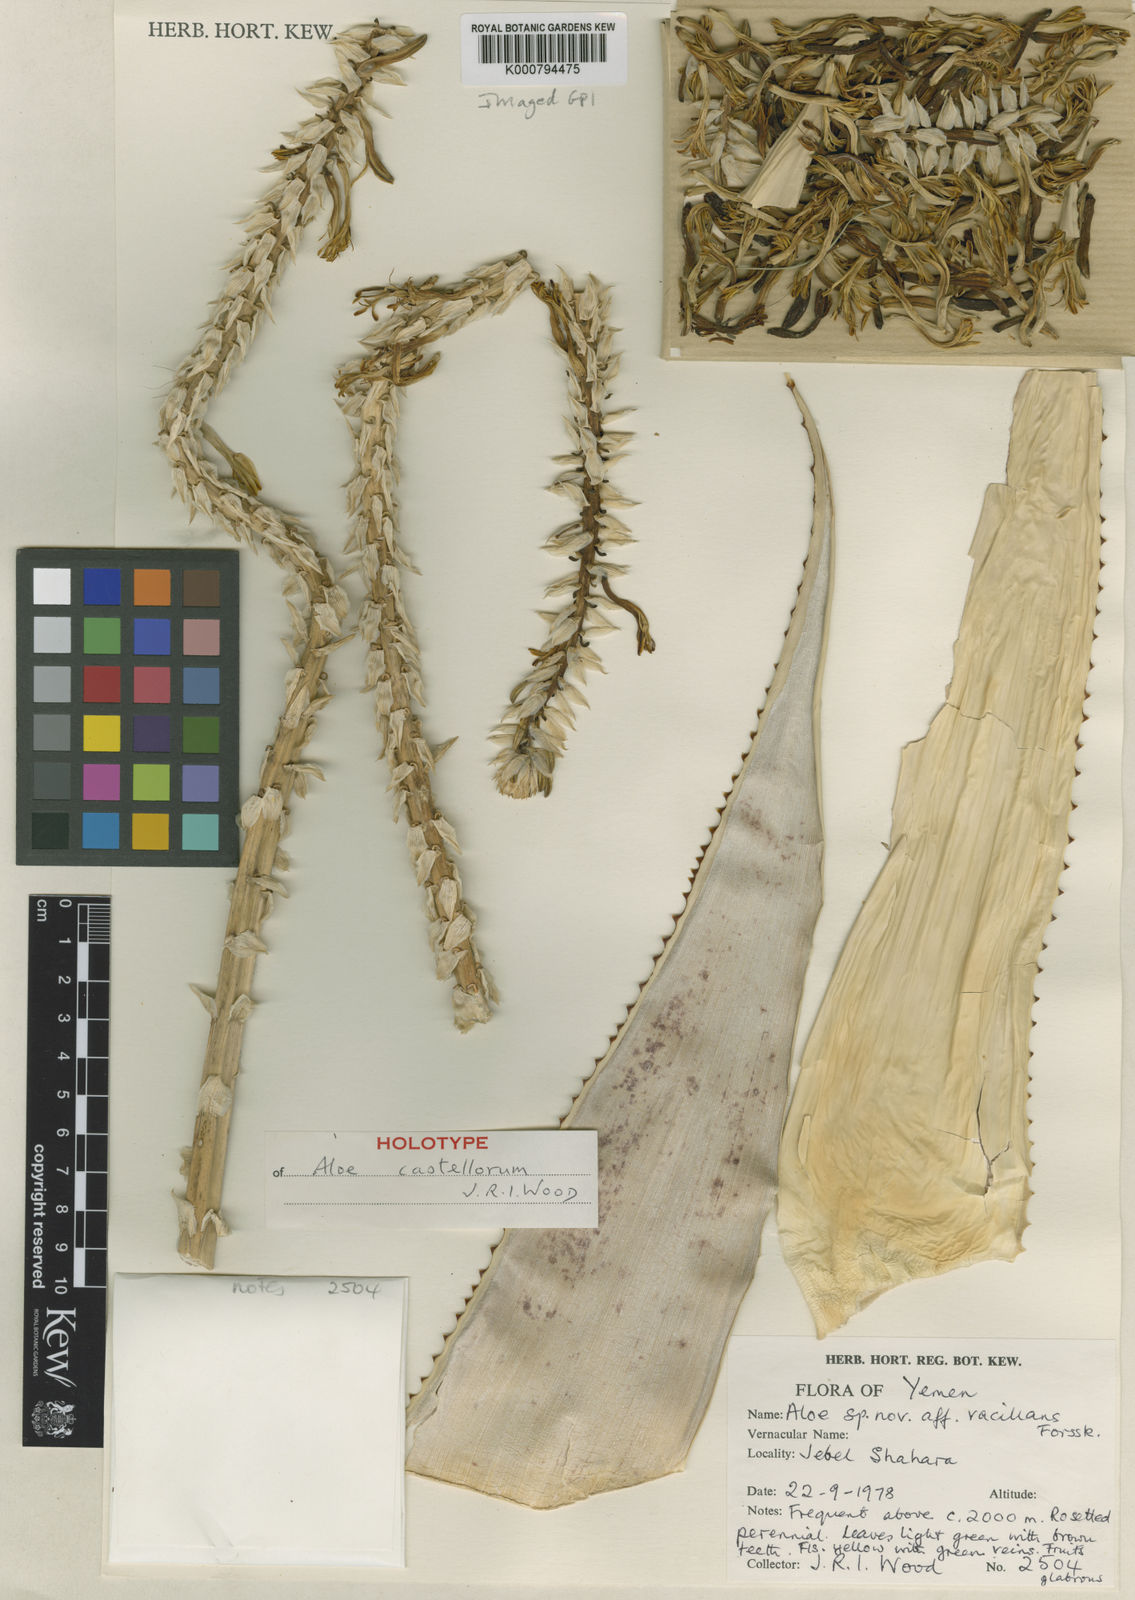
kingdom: Plantae
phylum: Tracheophyta
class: Liliopsida
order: Asparagales
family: Asphodelaceae
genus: Aloe
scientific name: Aloe castellorum
